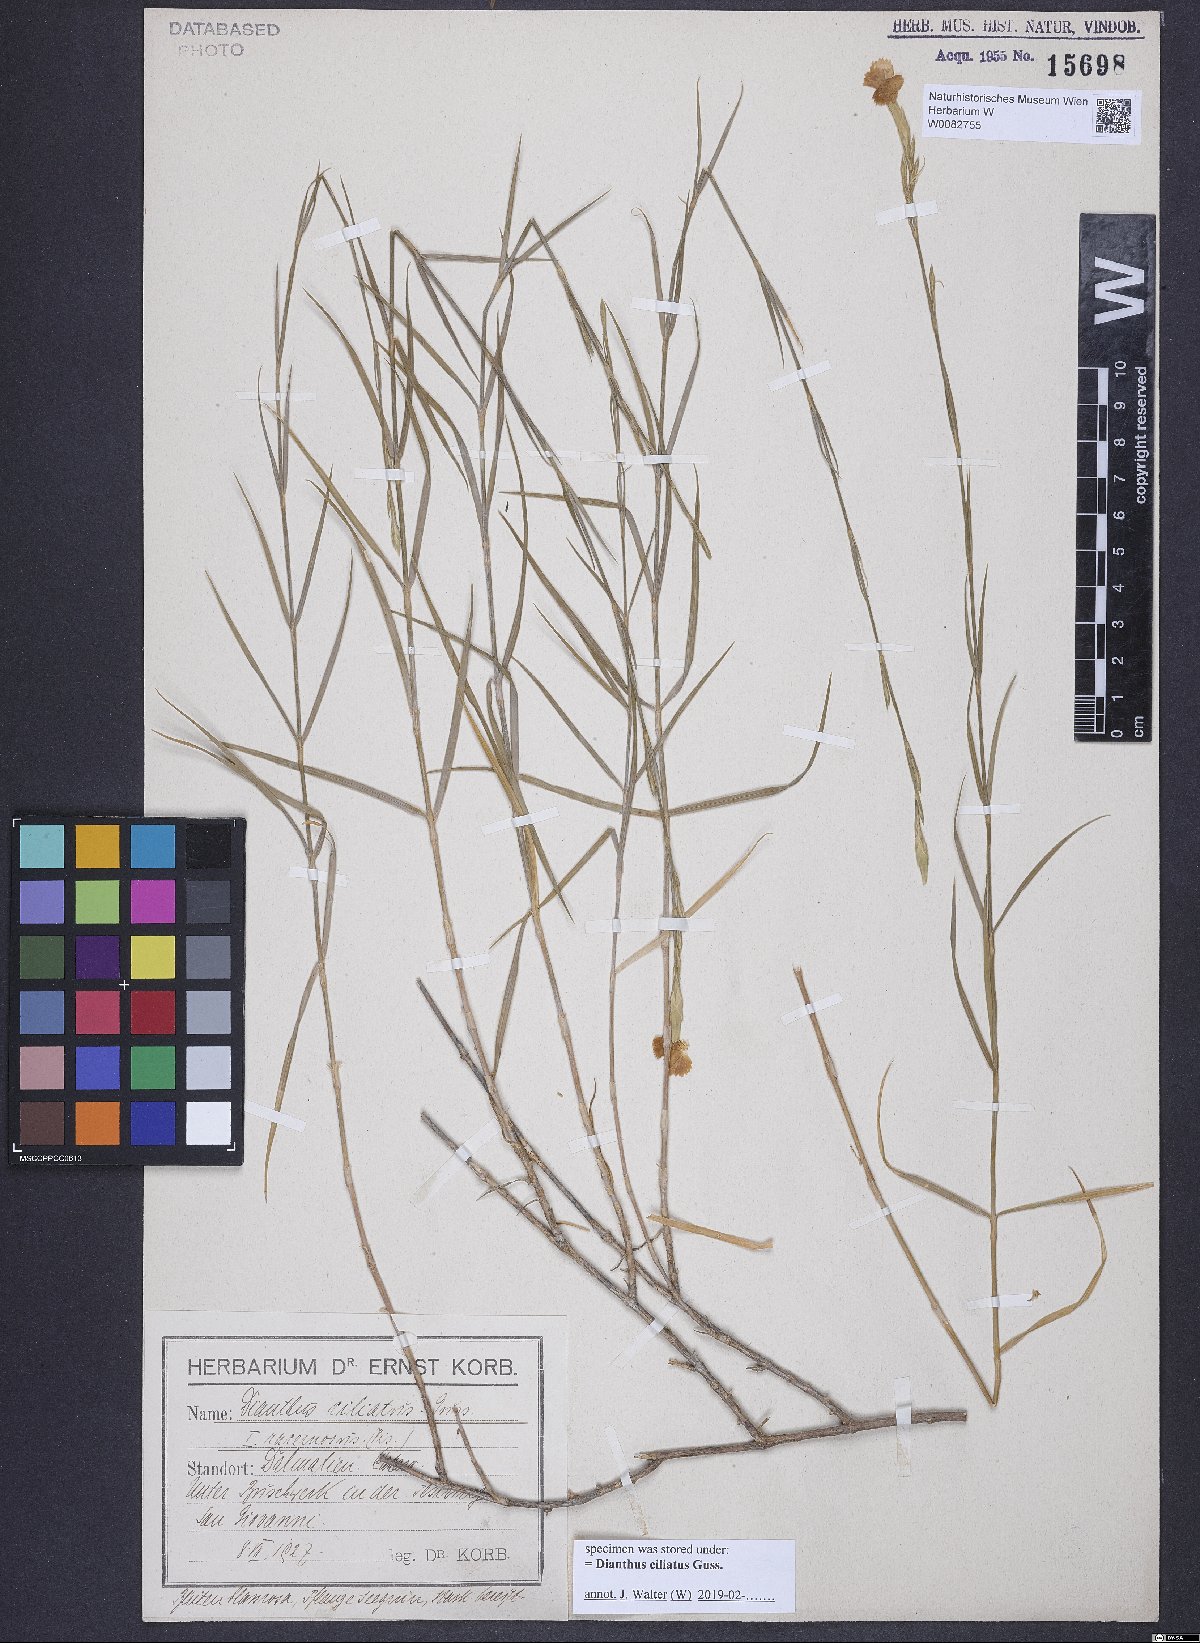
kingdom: Plantae
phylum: Tracheophyta
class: Magnoliopsida
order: Caryophyllales
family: Caryophyllaceae
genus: Dianthus
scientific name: Dianthus ciliatus
